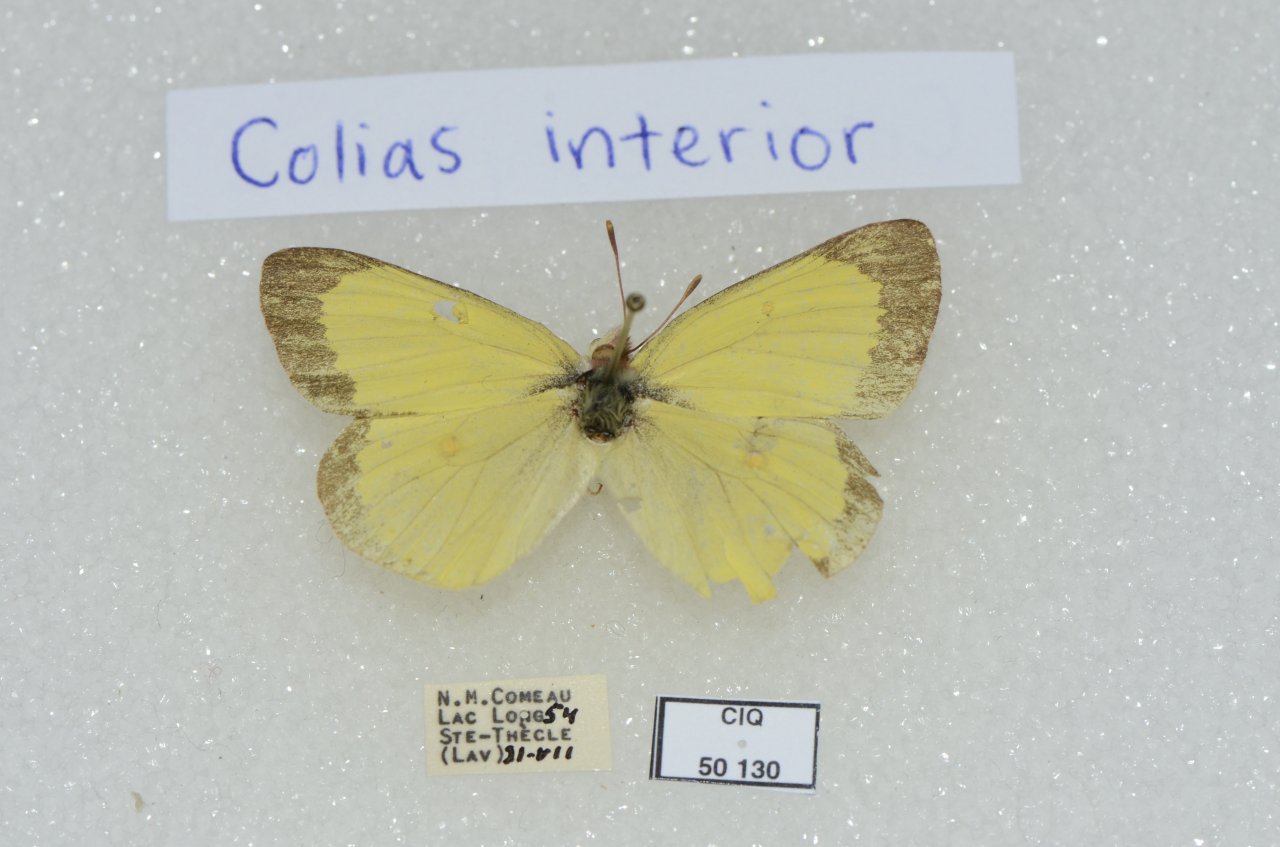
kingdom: Animalia
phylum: Arthropoda
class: Insecta
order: Lepidoptera
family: Pieridae
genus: Colias
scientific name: Colias interior
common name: Pink-edged Sulphur
